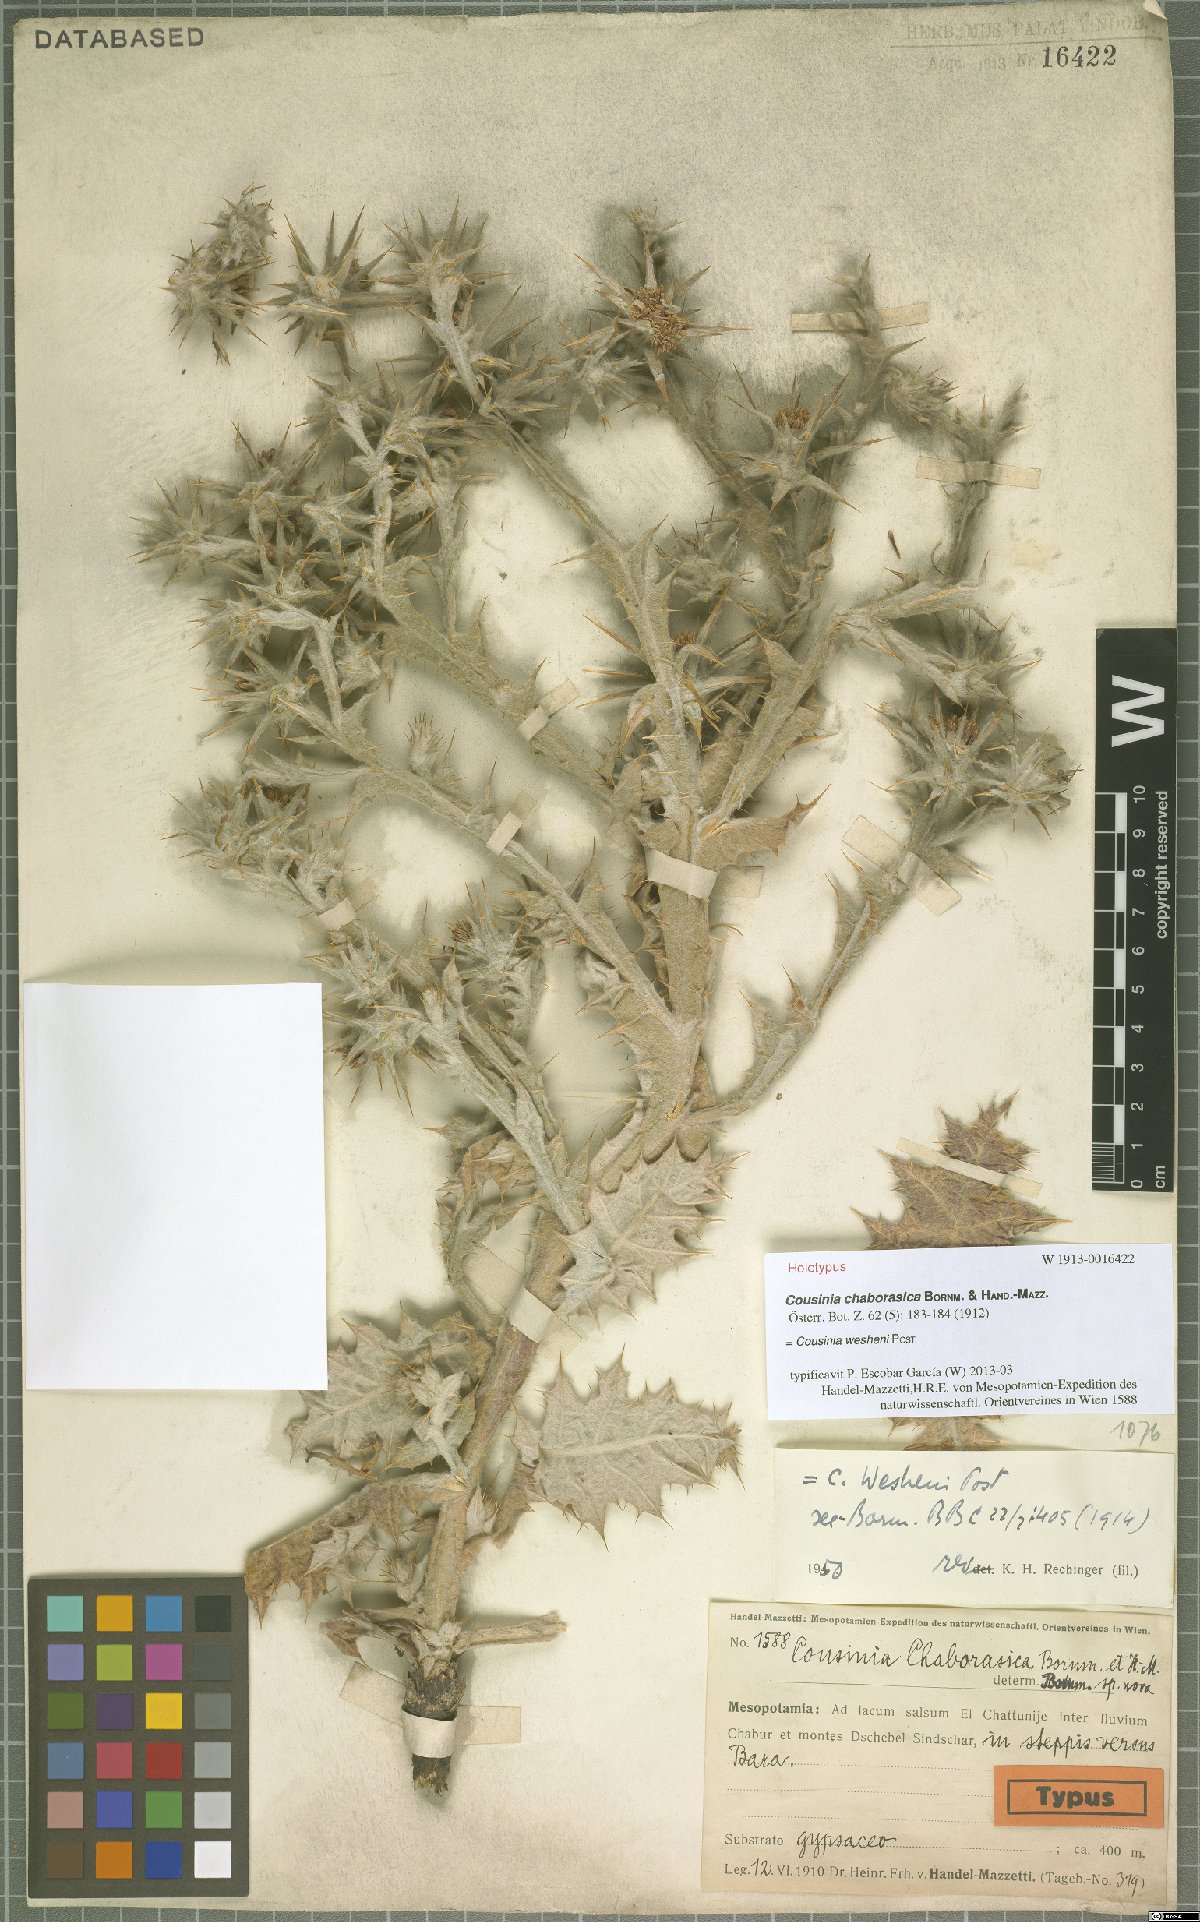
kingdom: Plantae
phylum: Tracheophyta
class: Magnoliopsida
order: Asterales
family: Asteraceae
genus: Cousinia
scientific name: Cousinia wesheni
